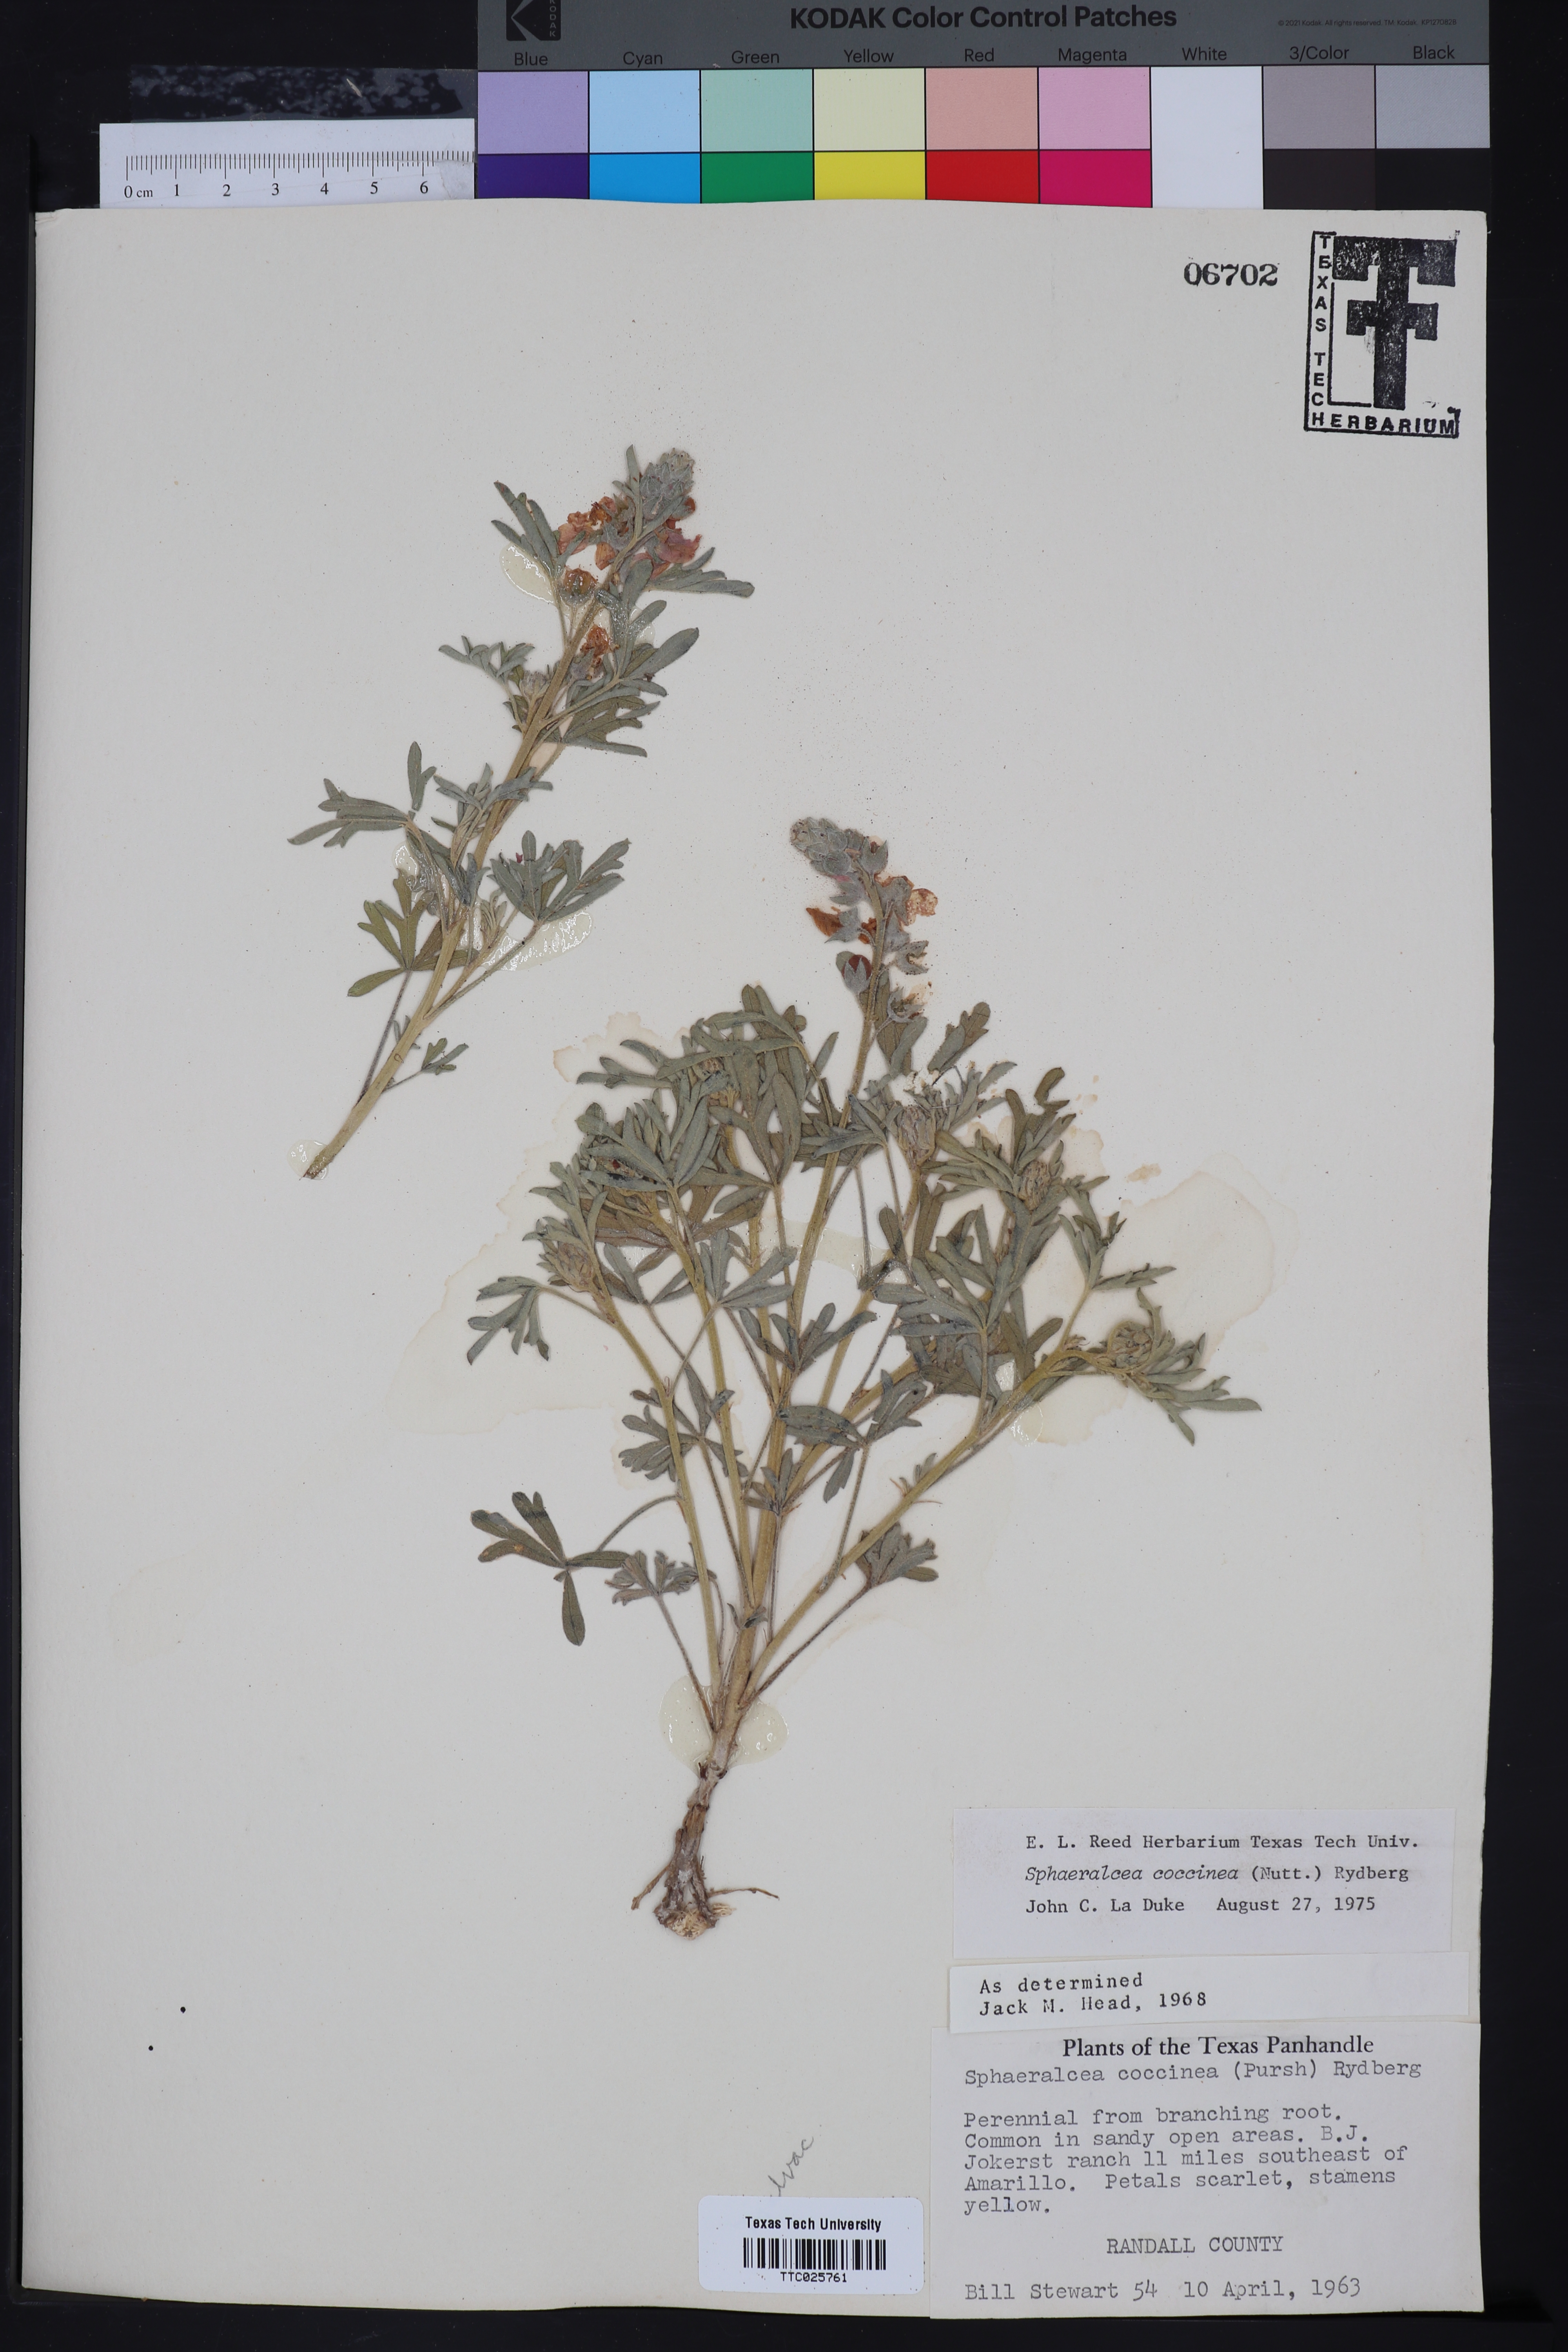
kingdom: Plantae
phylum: Tracheophyta
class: Magnoliopsida
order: Malvales
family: Malvaceae
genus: Sphaeralcea
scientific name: Sphaeralcea coccinea
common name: Moss-rose
